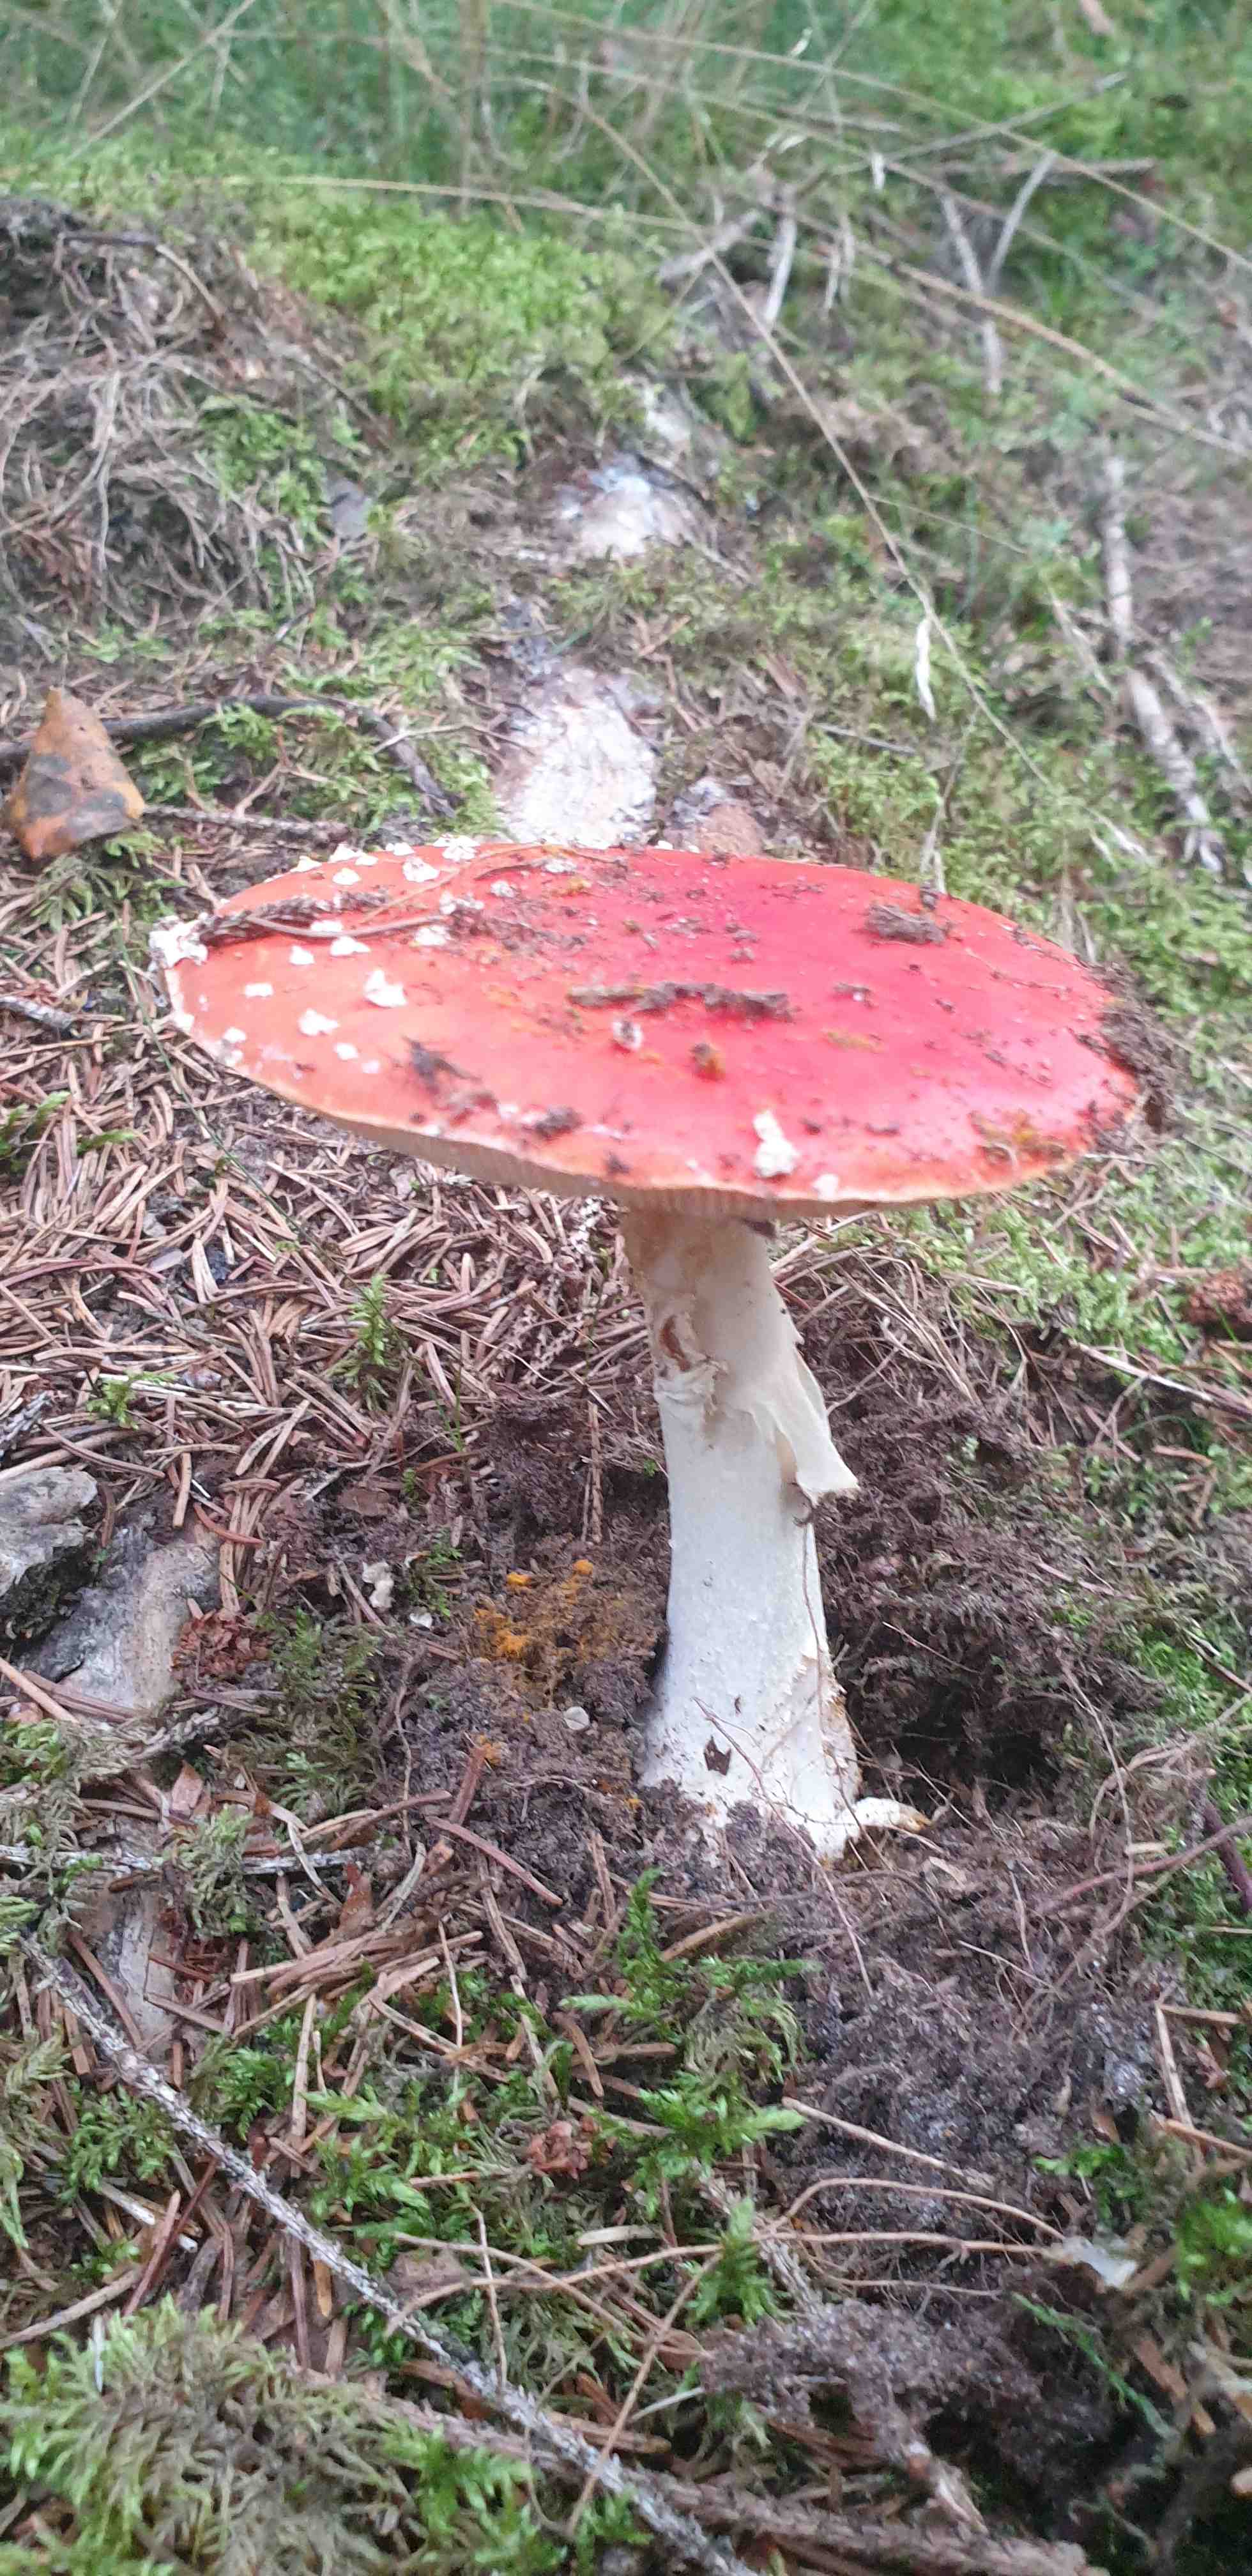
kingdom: Fungi
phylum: Basidiomycota
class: Agaricomycetes
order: Agaricales
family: Amanitaceae
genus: Amanita
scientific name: Amanita muscaria
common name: rød fluesvamp
